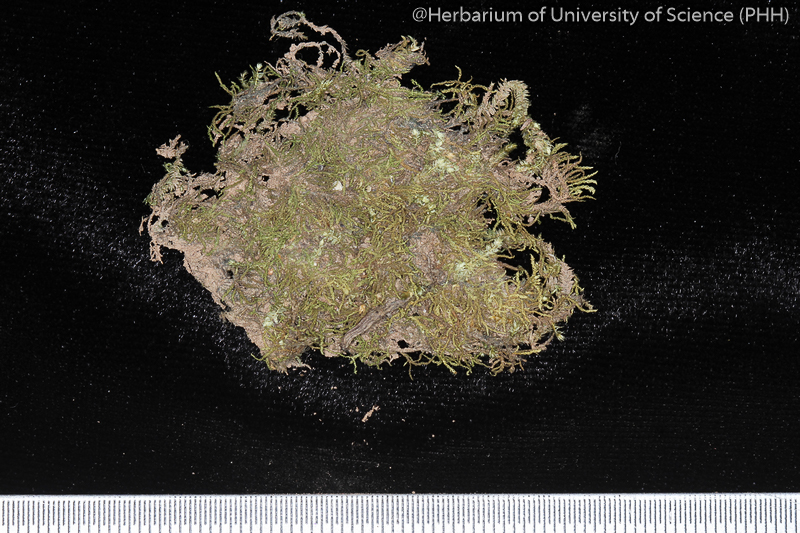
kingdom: Plantae
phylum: Bryophyta
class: Bryopsida
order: Hypnales
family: Leskeaceae
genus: Haplocladium
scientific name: Haplocladium larminatii
